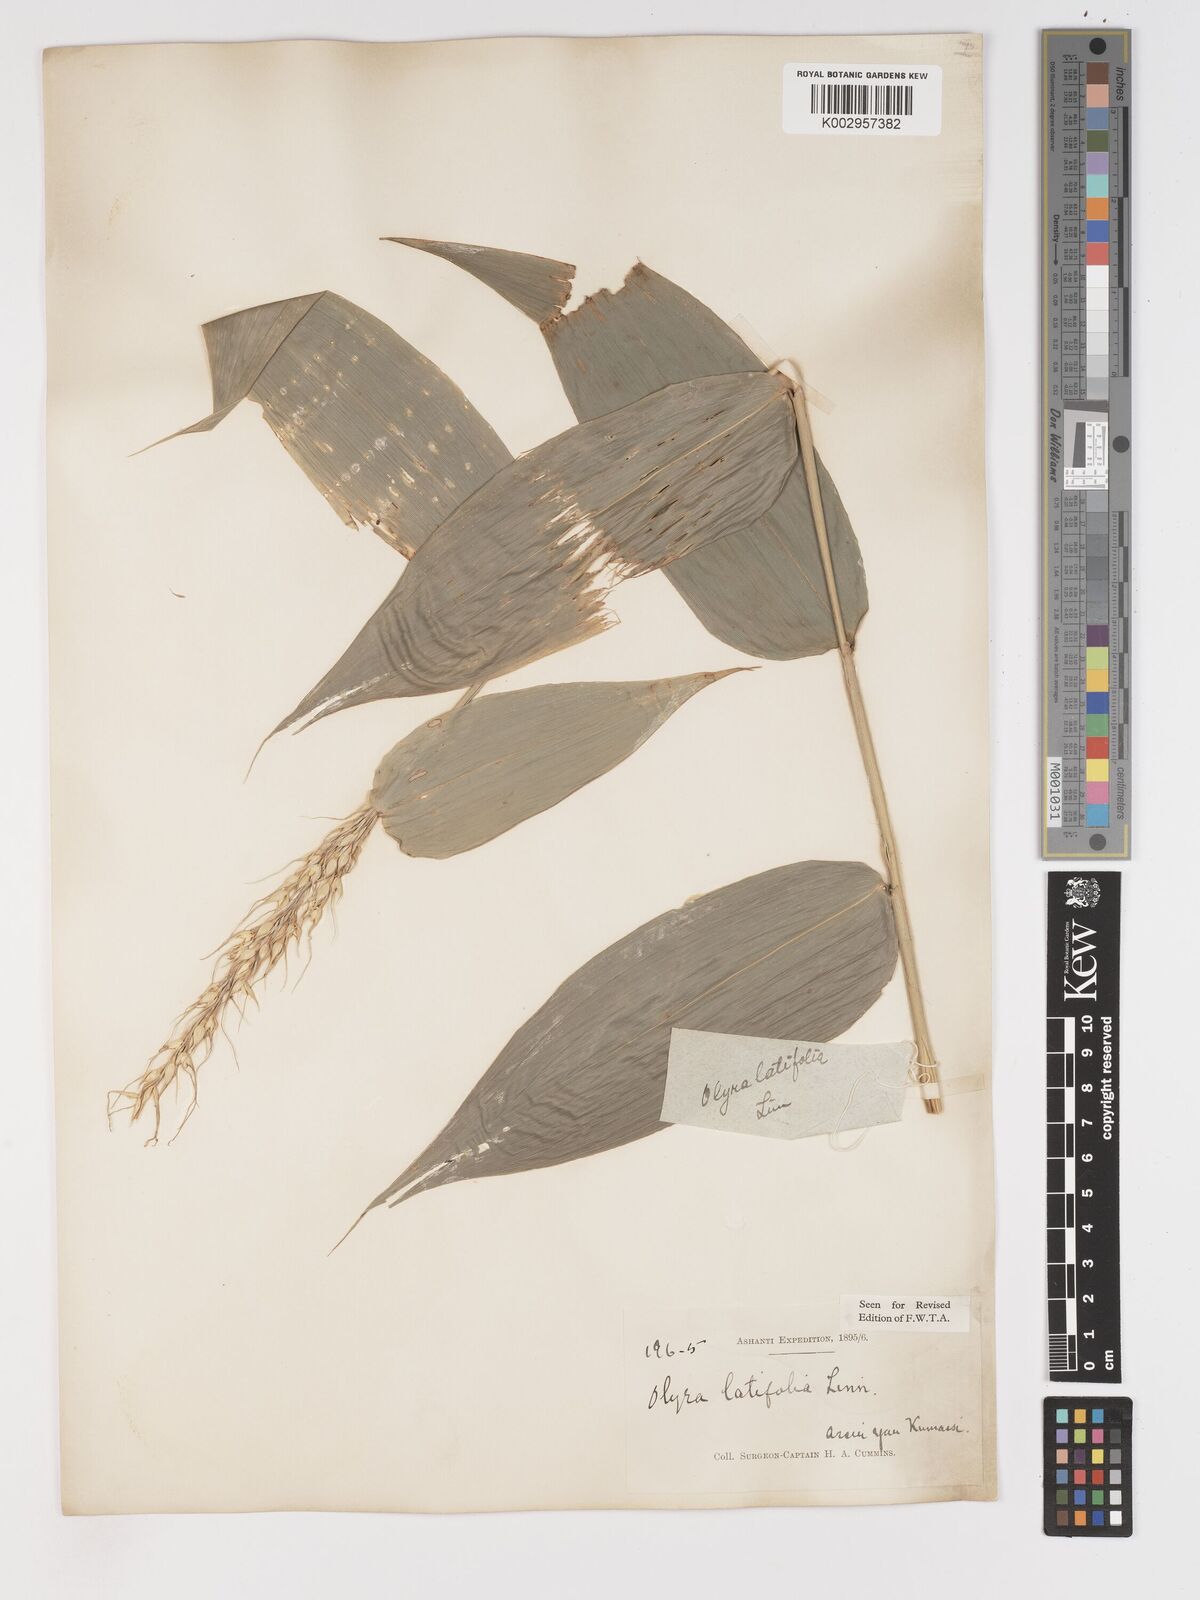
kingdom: Plantae
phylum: Tracheophyta
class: Liliopsida
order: Poales
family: Poaceae
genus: Olyra
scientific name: Olyra latifolia
